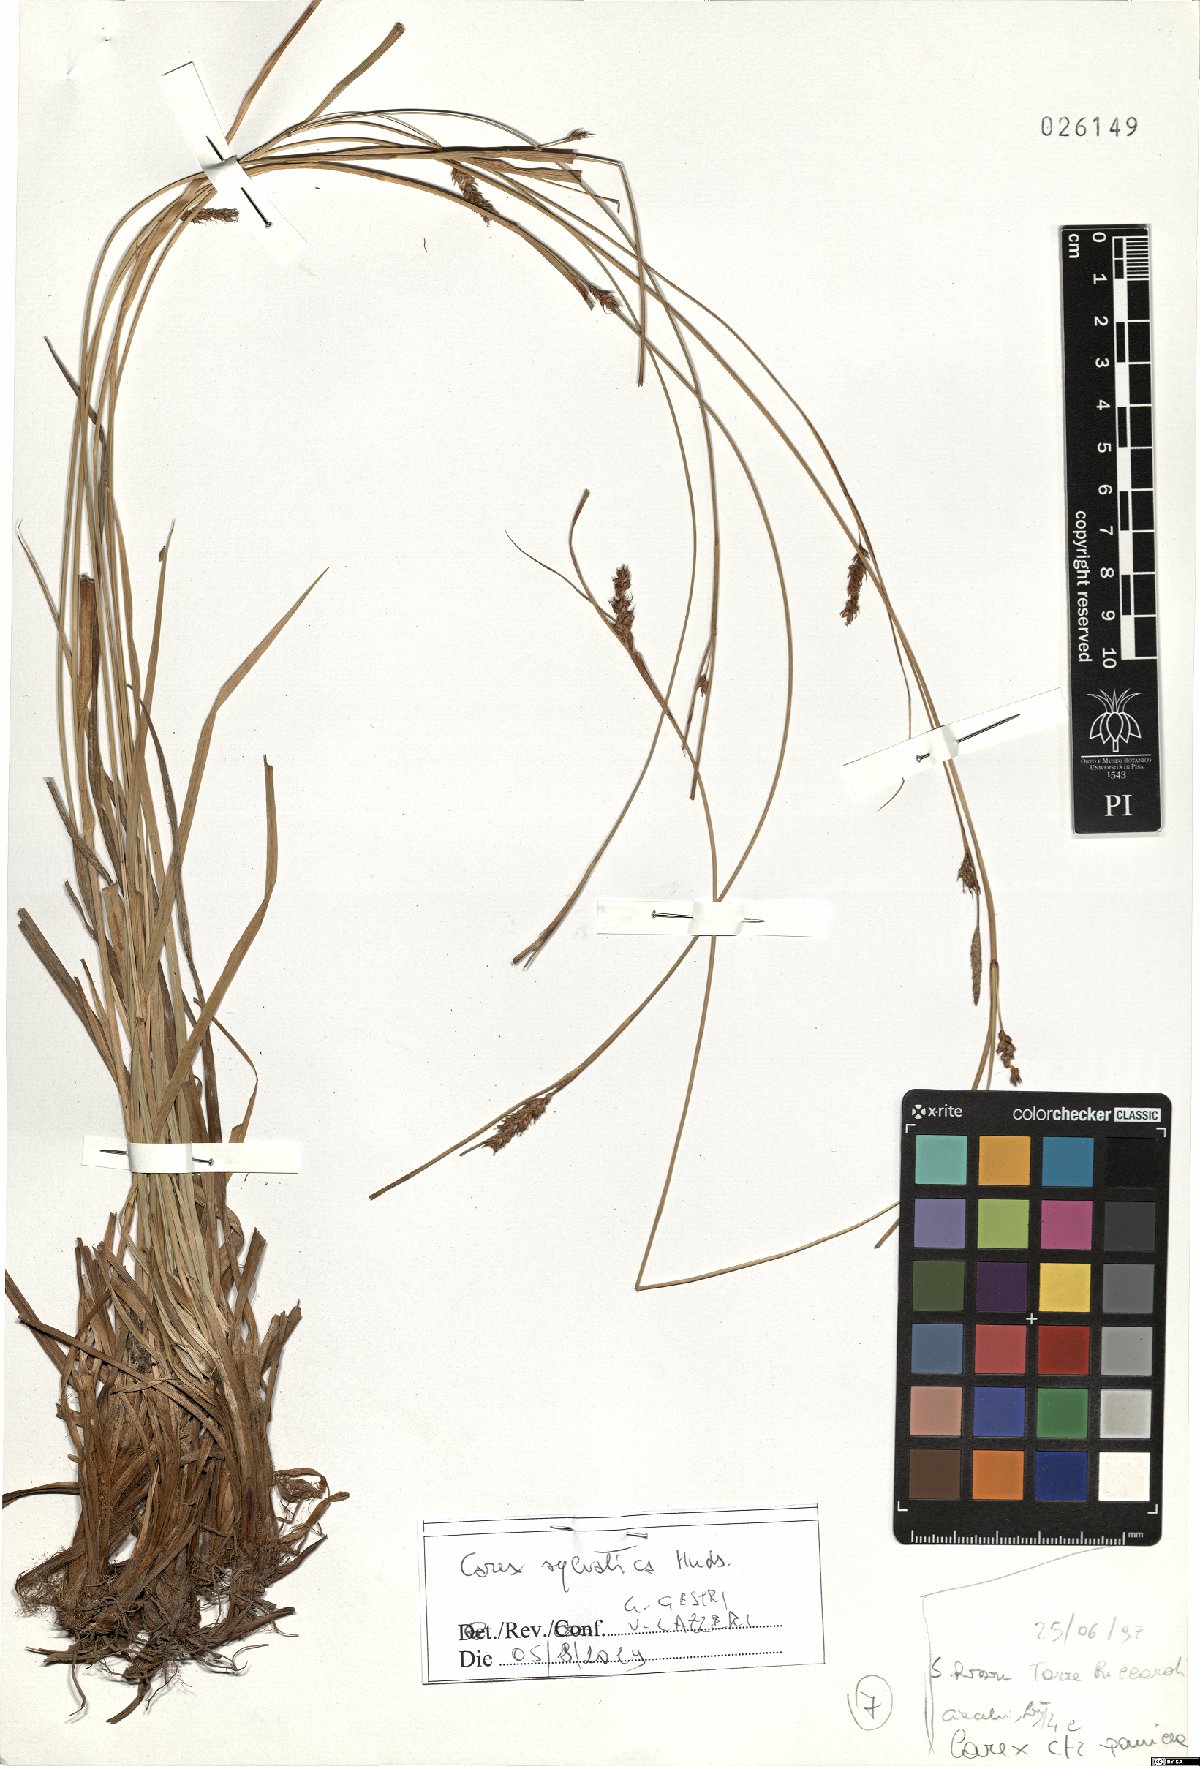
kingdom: Plantae
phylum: Tracheophyta
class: Liliopsida
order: Poales
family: Cyperaceae
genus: Carex
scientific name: Carex sylvatica
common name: Wood-sedge
